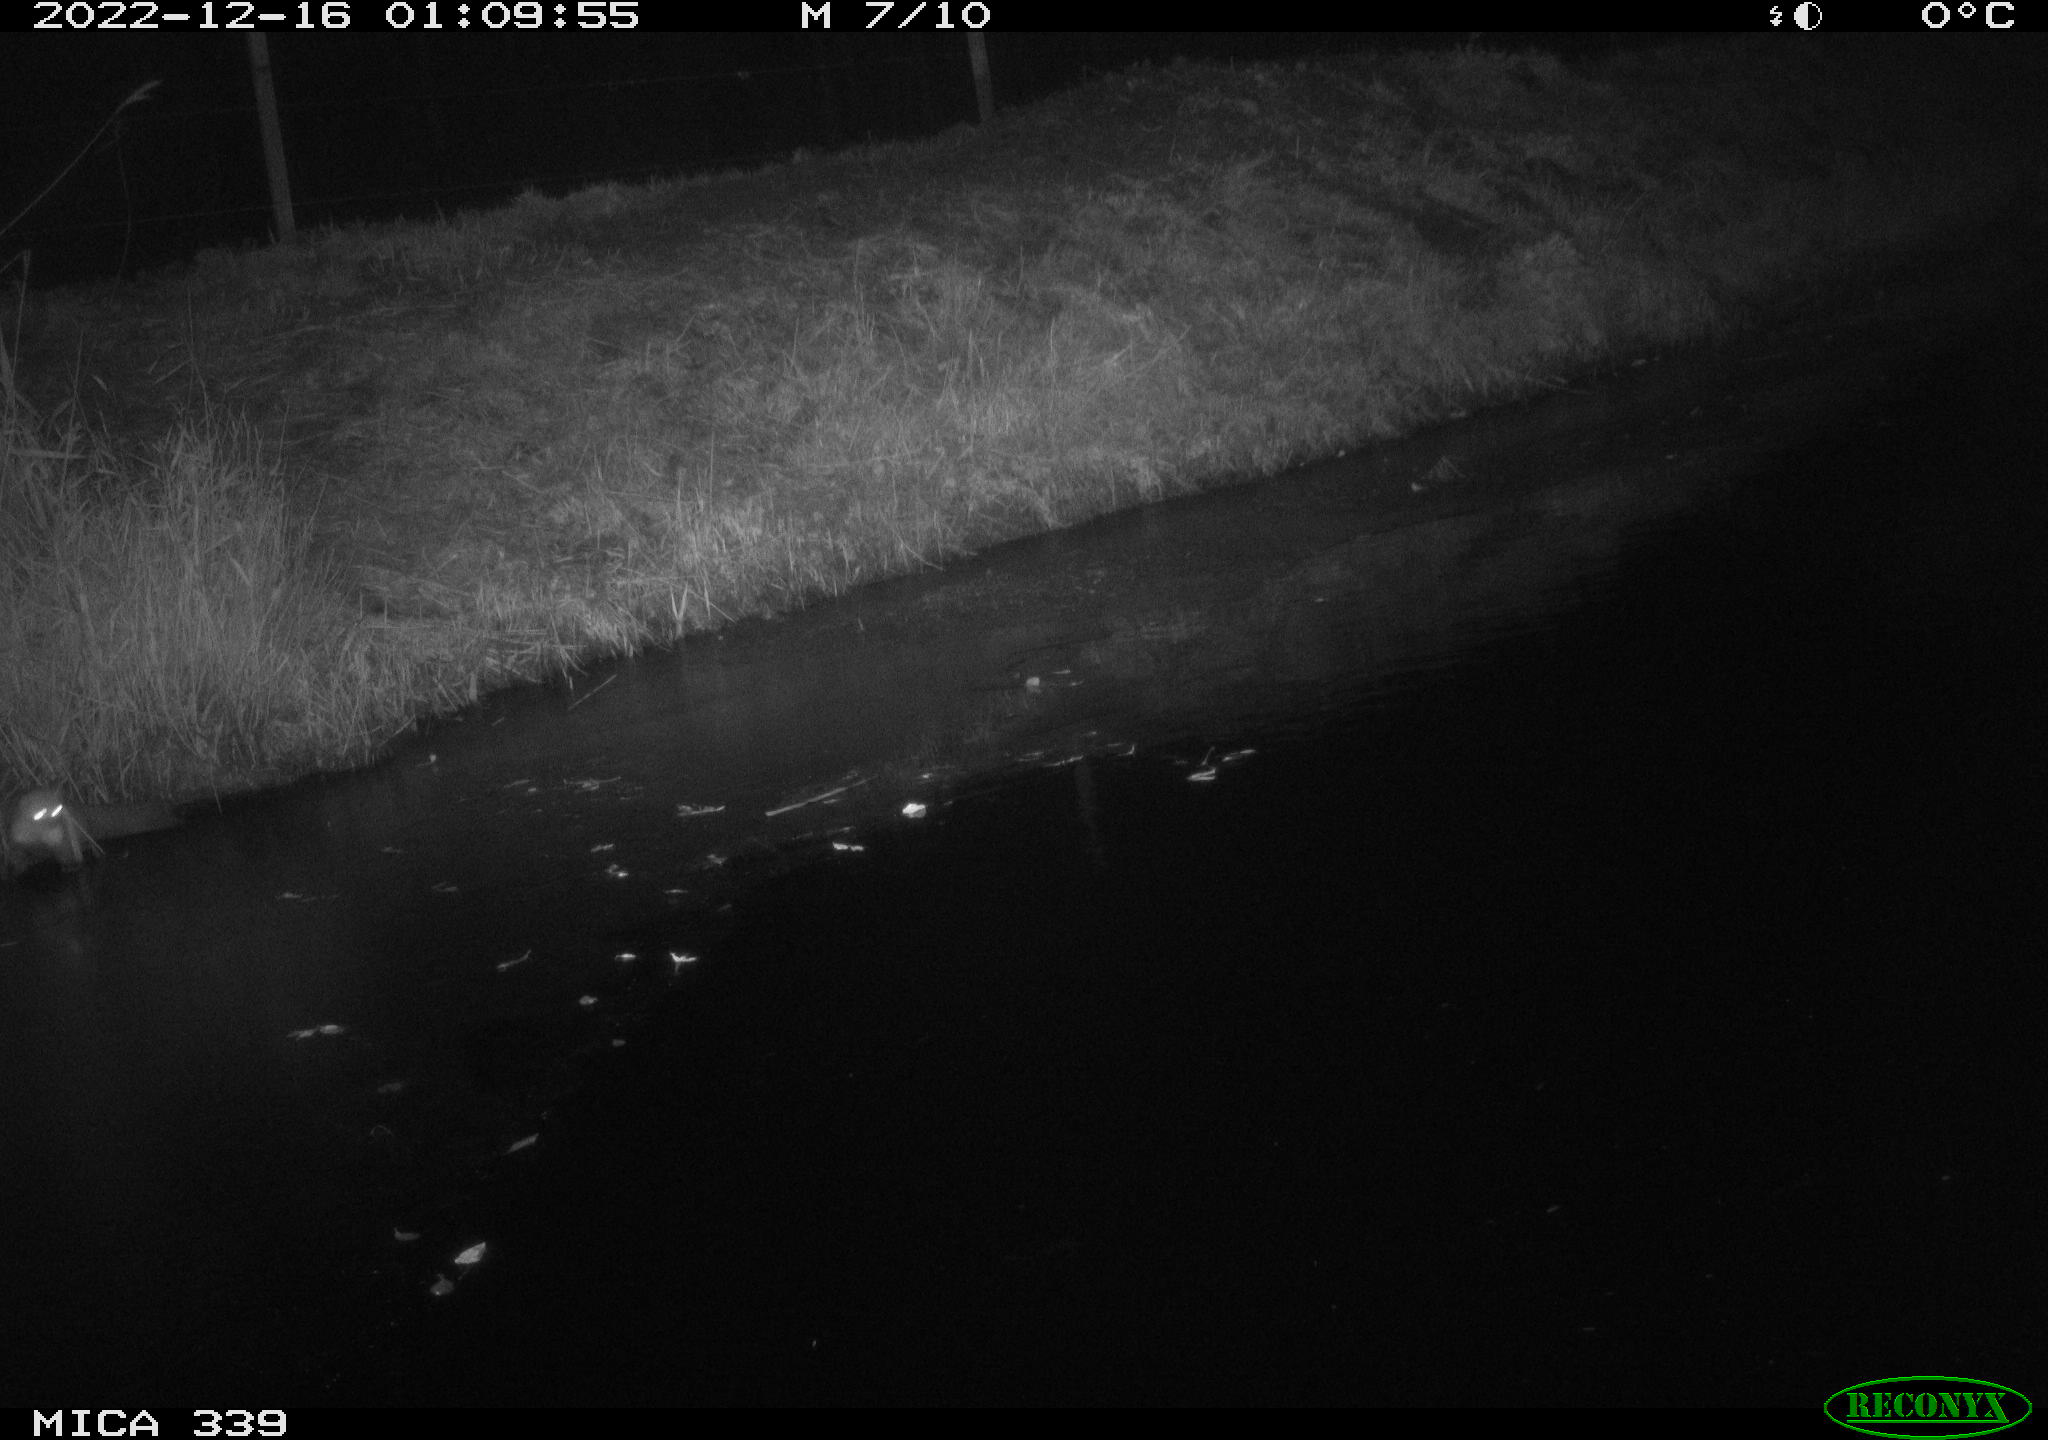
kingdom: Animalia
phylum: Chordata
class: Mammalia
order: Carnivora
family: Canidae
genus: Vulpes
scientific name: Vulpes vulpes
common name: Red fox
